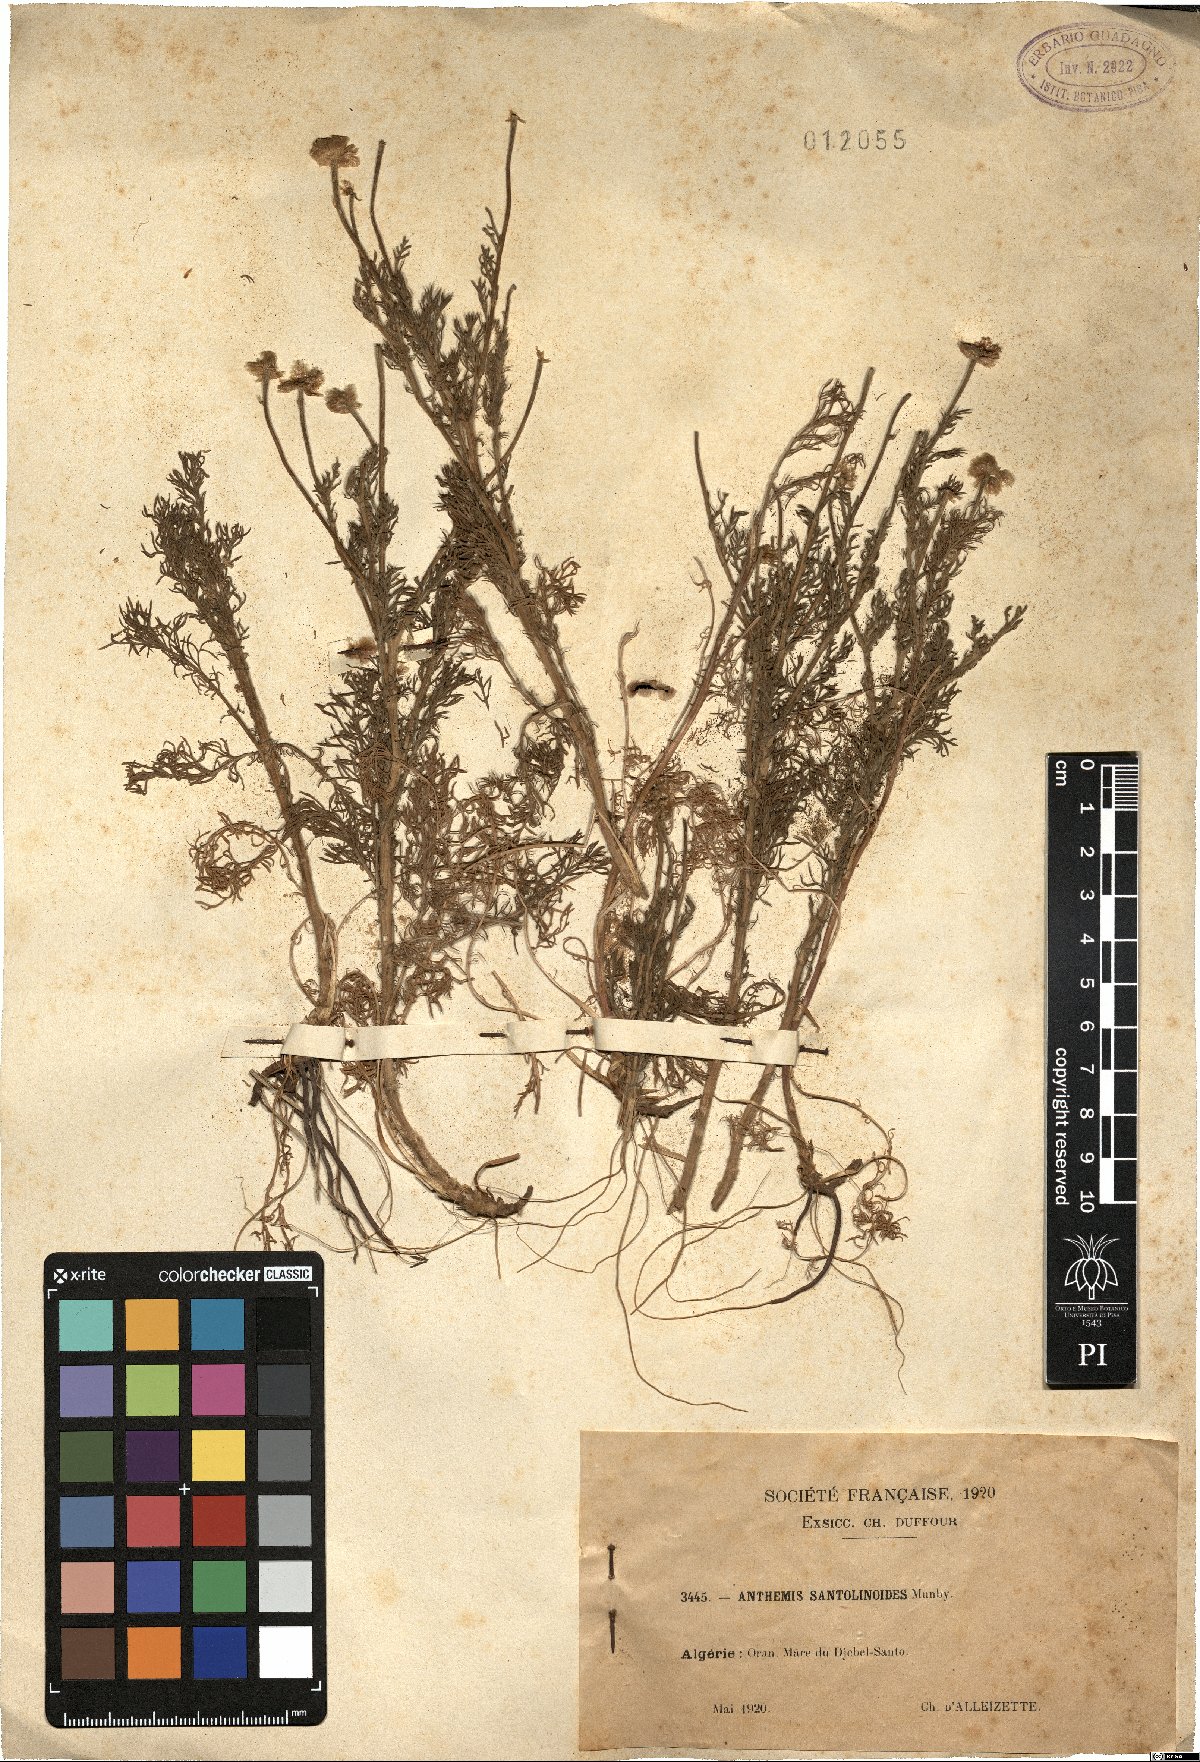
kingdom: Plantae
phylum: Tracheophyta
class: Magnoliopsida
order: Asterales
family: Asteraceae
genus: Chamaemelum
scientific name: Chamaemelum nobile
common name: Roman chamomile
